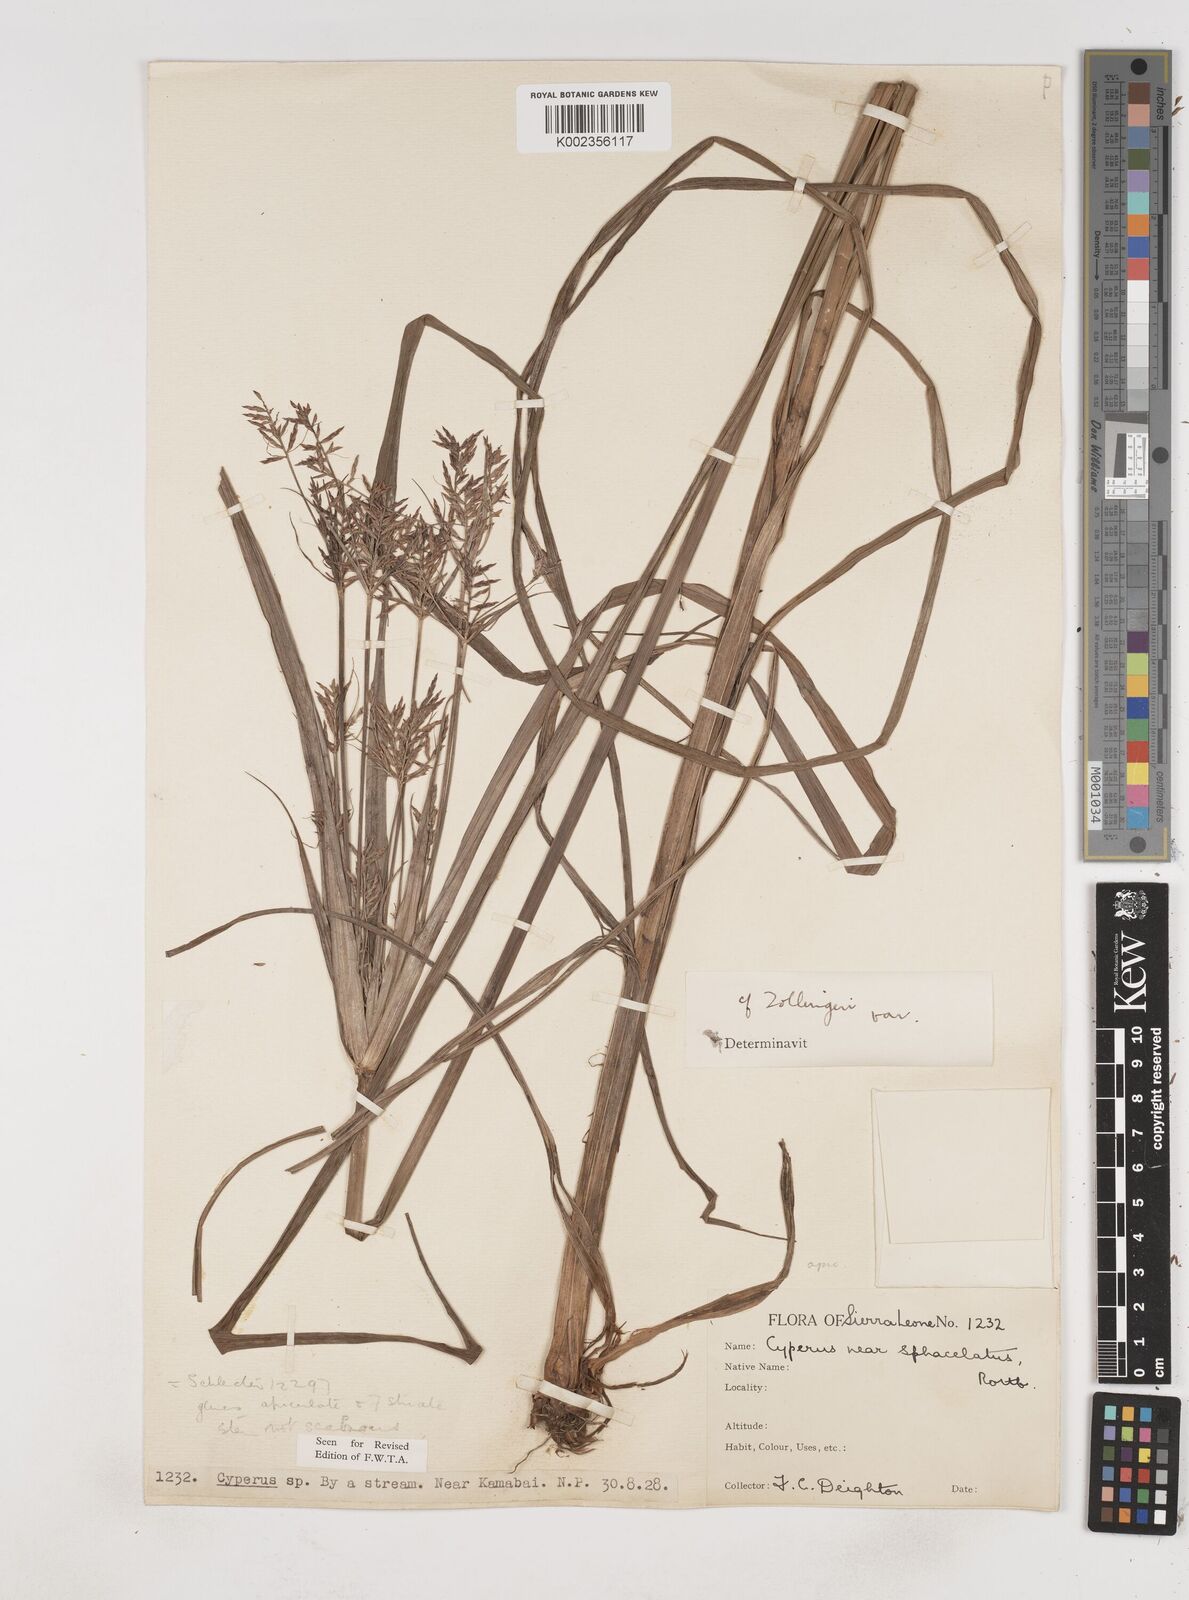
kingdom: Plantae
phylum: Tracheophyta
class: Liliopsida
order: Poales
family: Cyperaceae
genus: Cyperus
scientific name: Cyperus tenuiculmis
